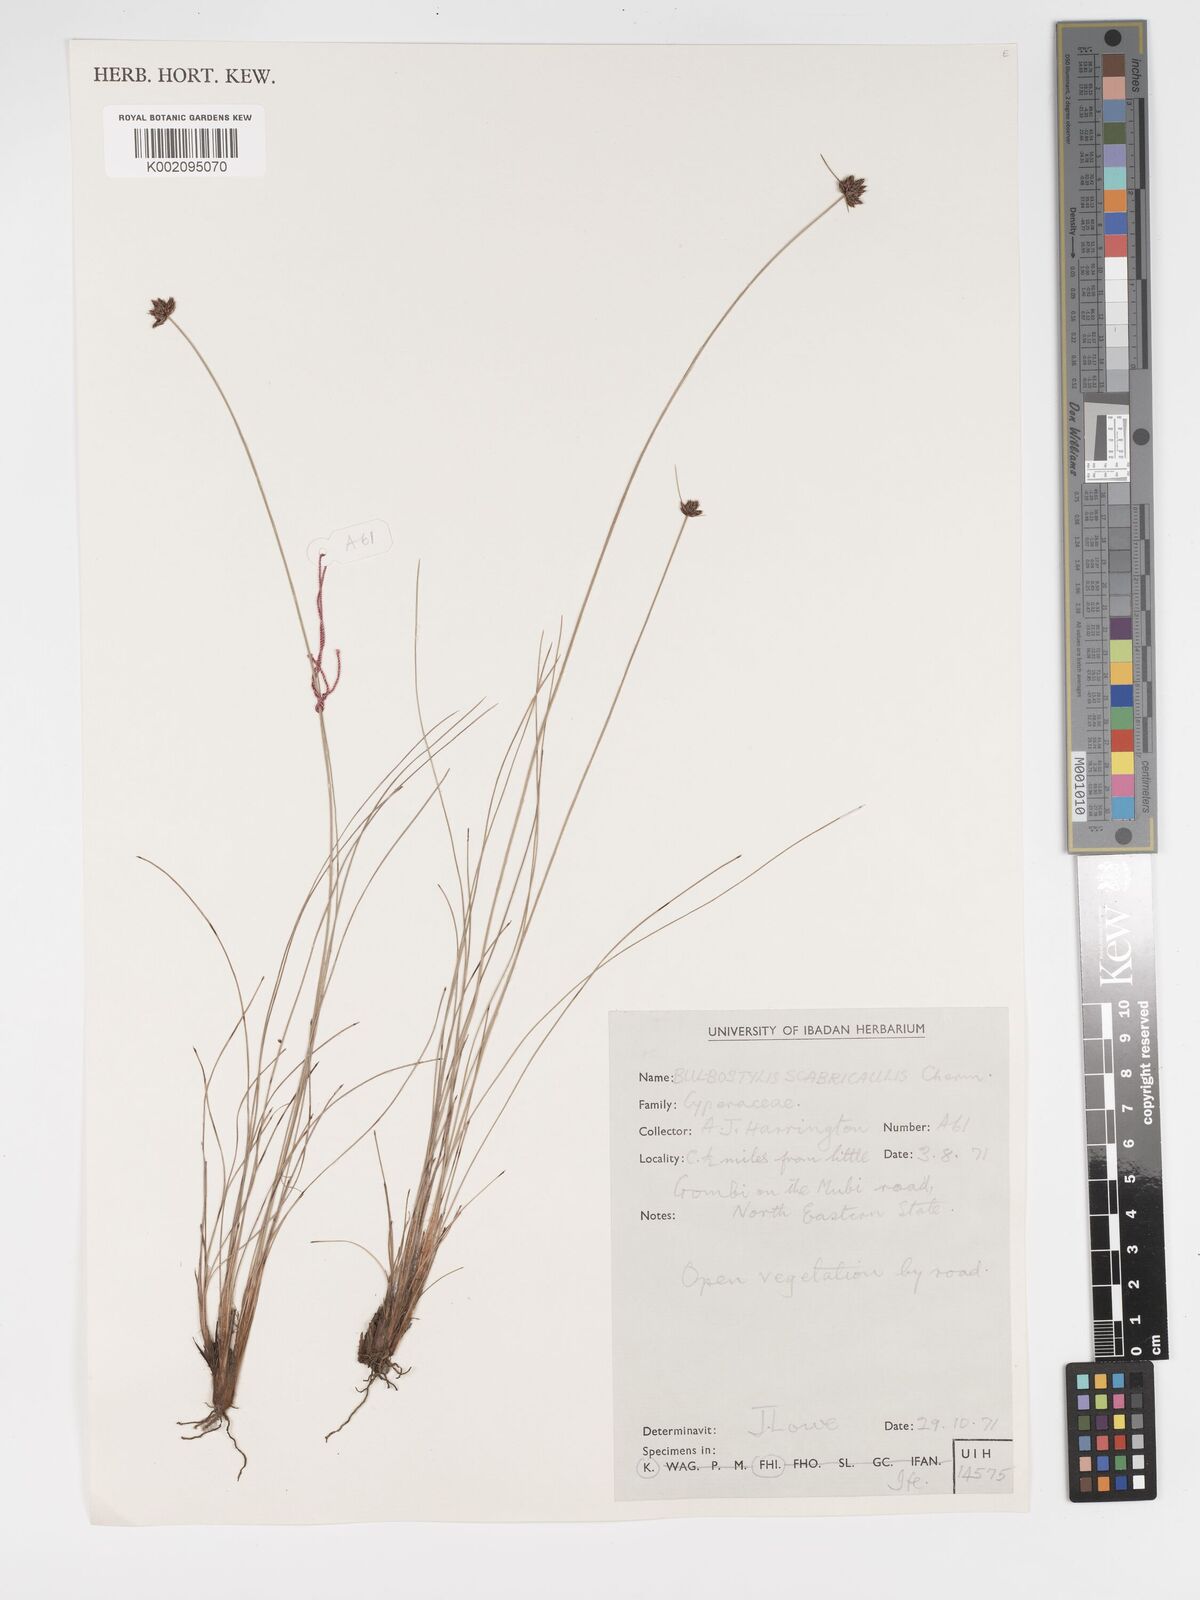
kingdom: Plantae
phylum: Tracheophyta
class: Liliopsida
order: Poales
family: Cyperaceae
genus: Bulbostylis
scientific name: Bulbostylis scabricaulis
